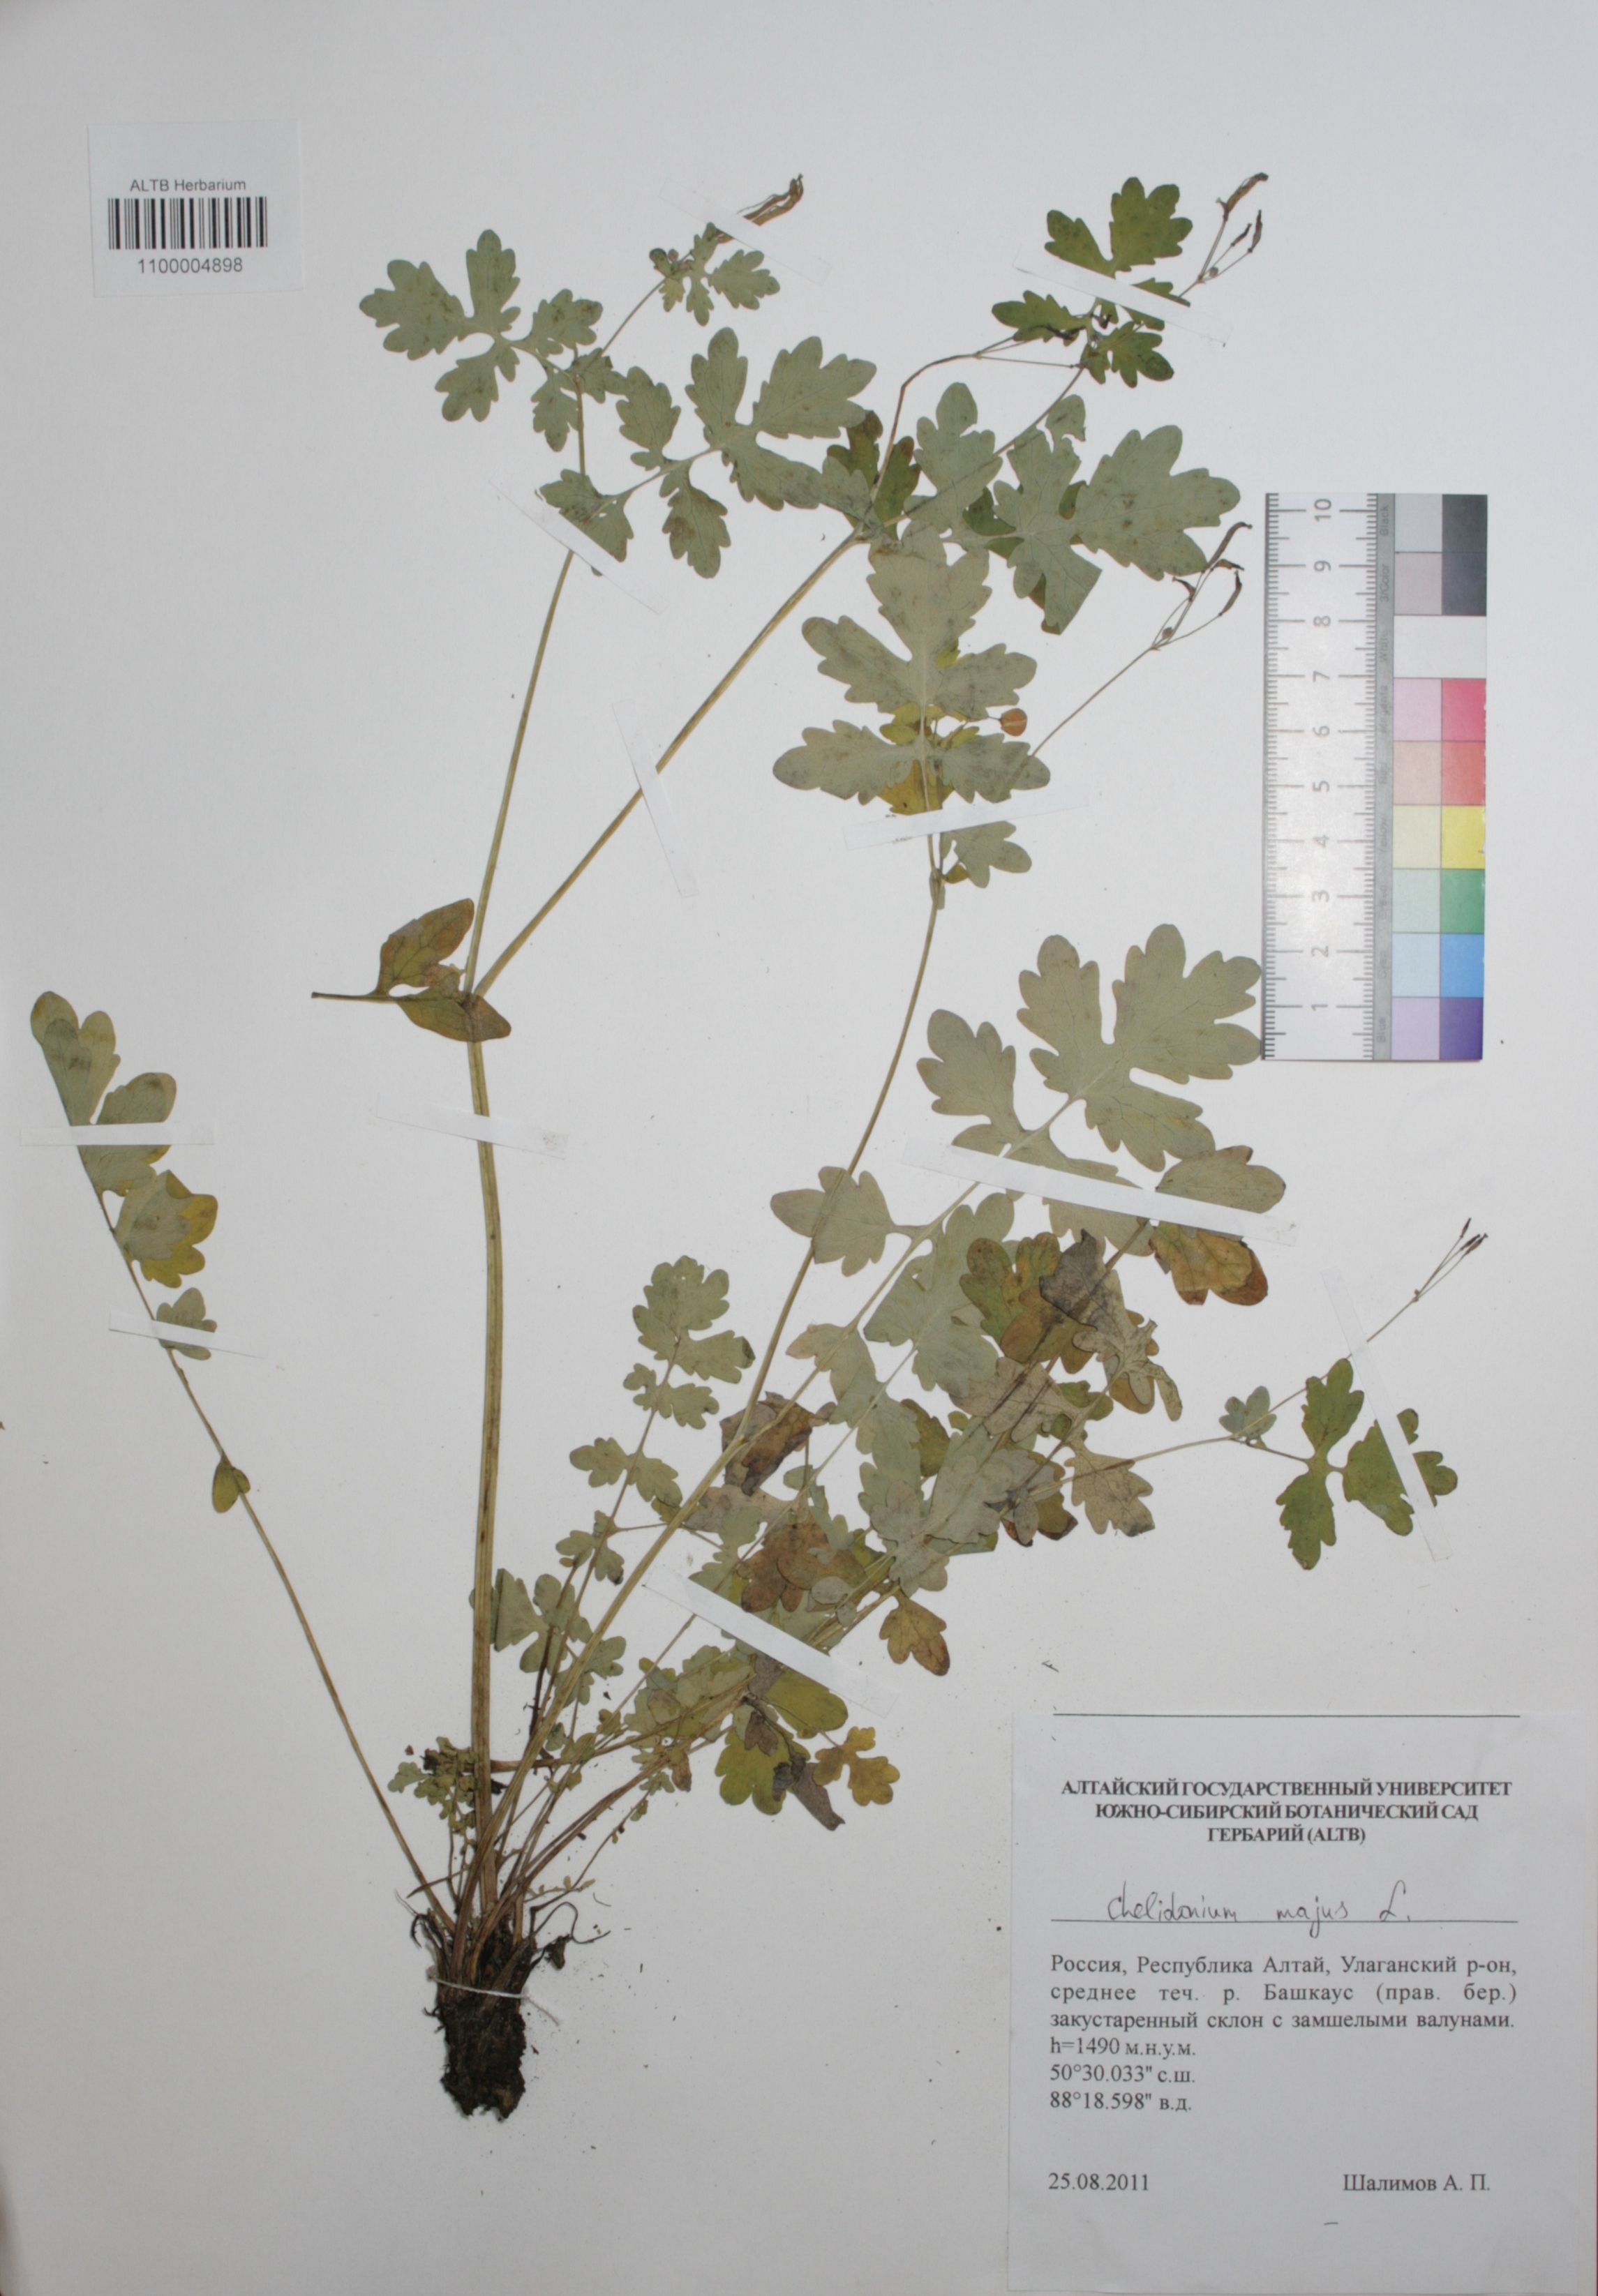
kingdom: Plantae
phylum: Tracheophyta
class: Magnoliopsida
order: Ranunculales
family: Papaveraceae
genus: Chelidonium
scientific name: Chelidonium majus
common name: Greater celandine
